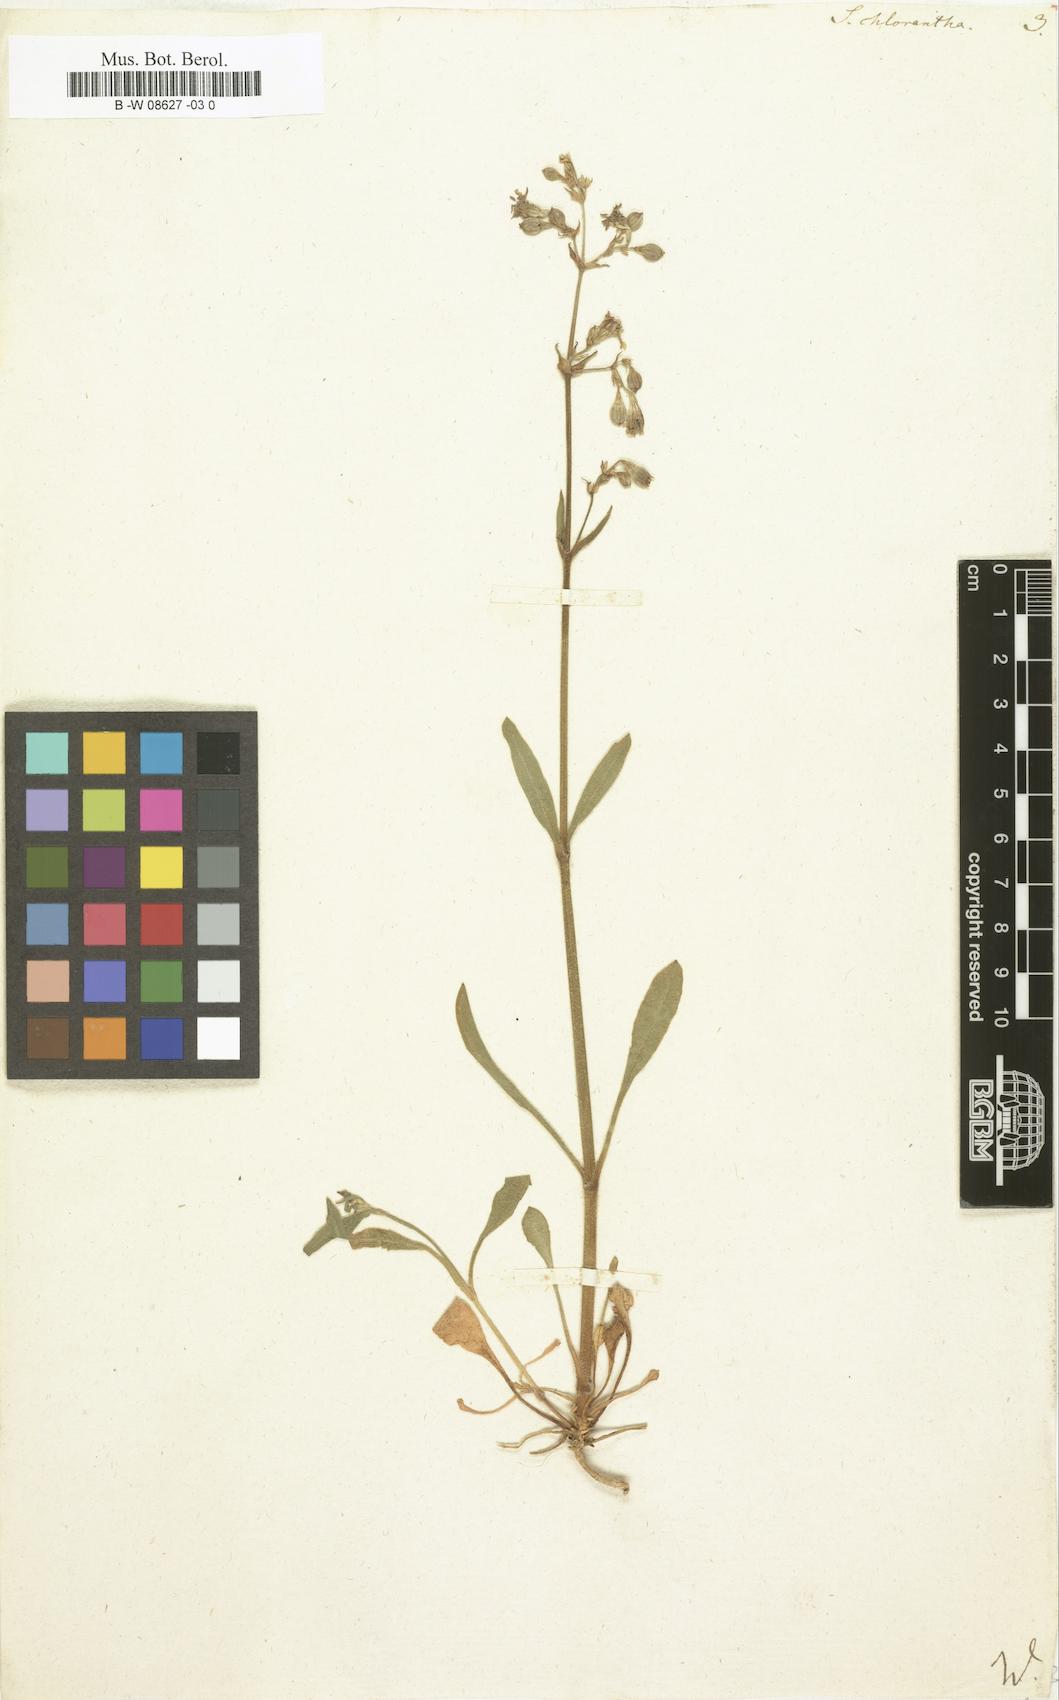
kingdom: Plantae
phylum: Tracheophyta
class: Magnoliopsida
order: Caryophyllales
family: Caryophyllaceae
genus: Silene
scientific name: Silene chlorantha
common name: Yellowgreen catchfly
